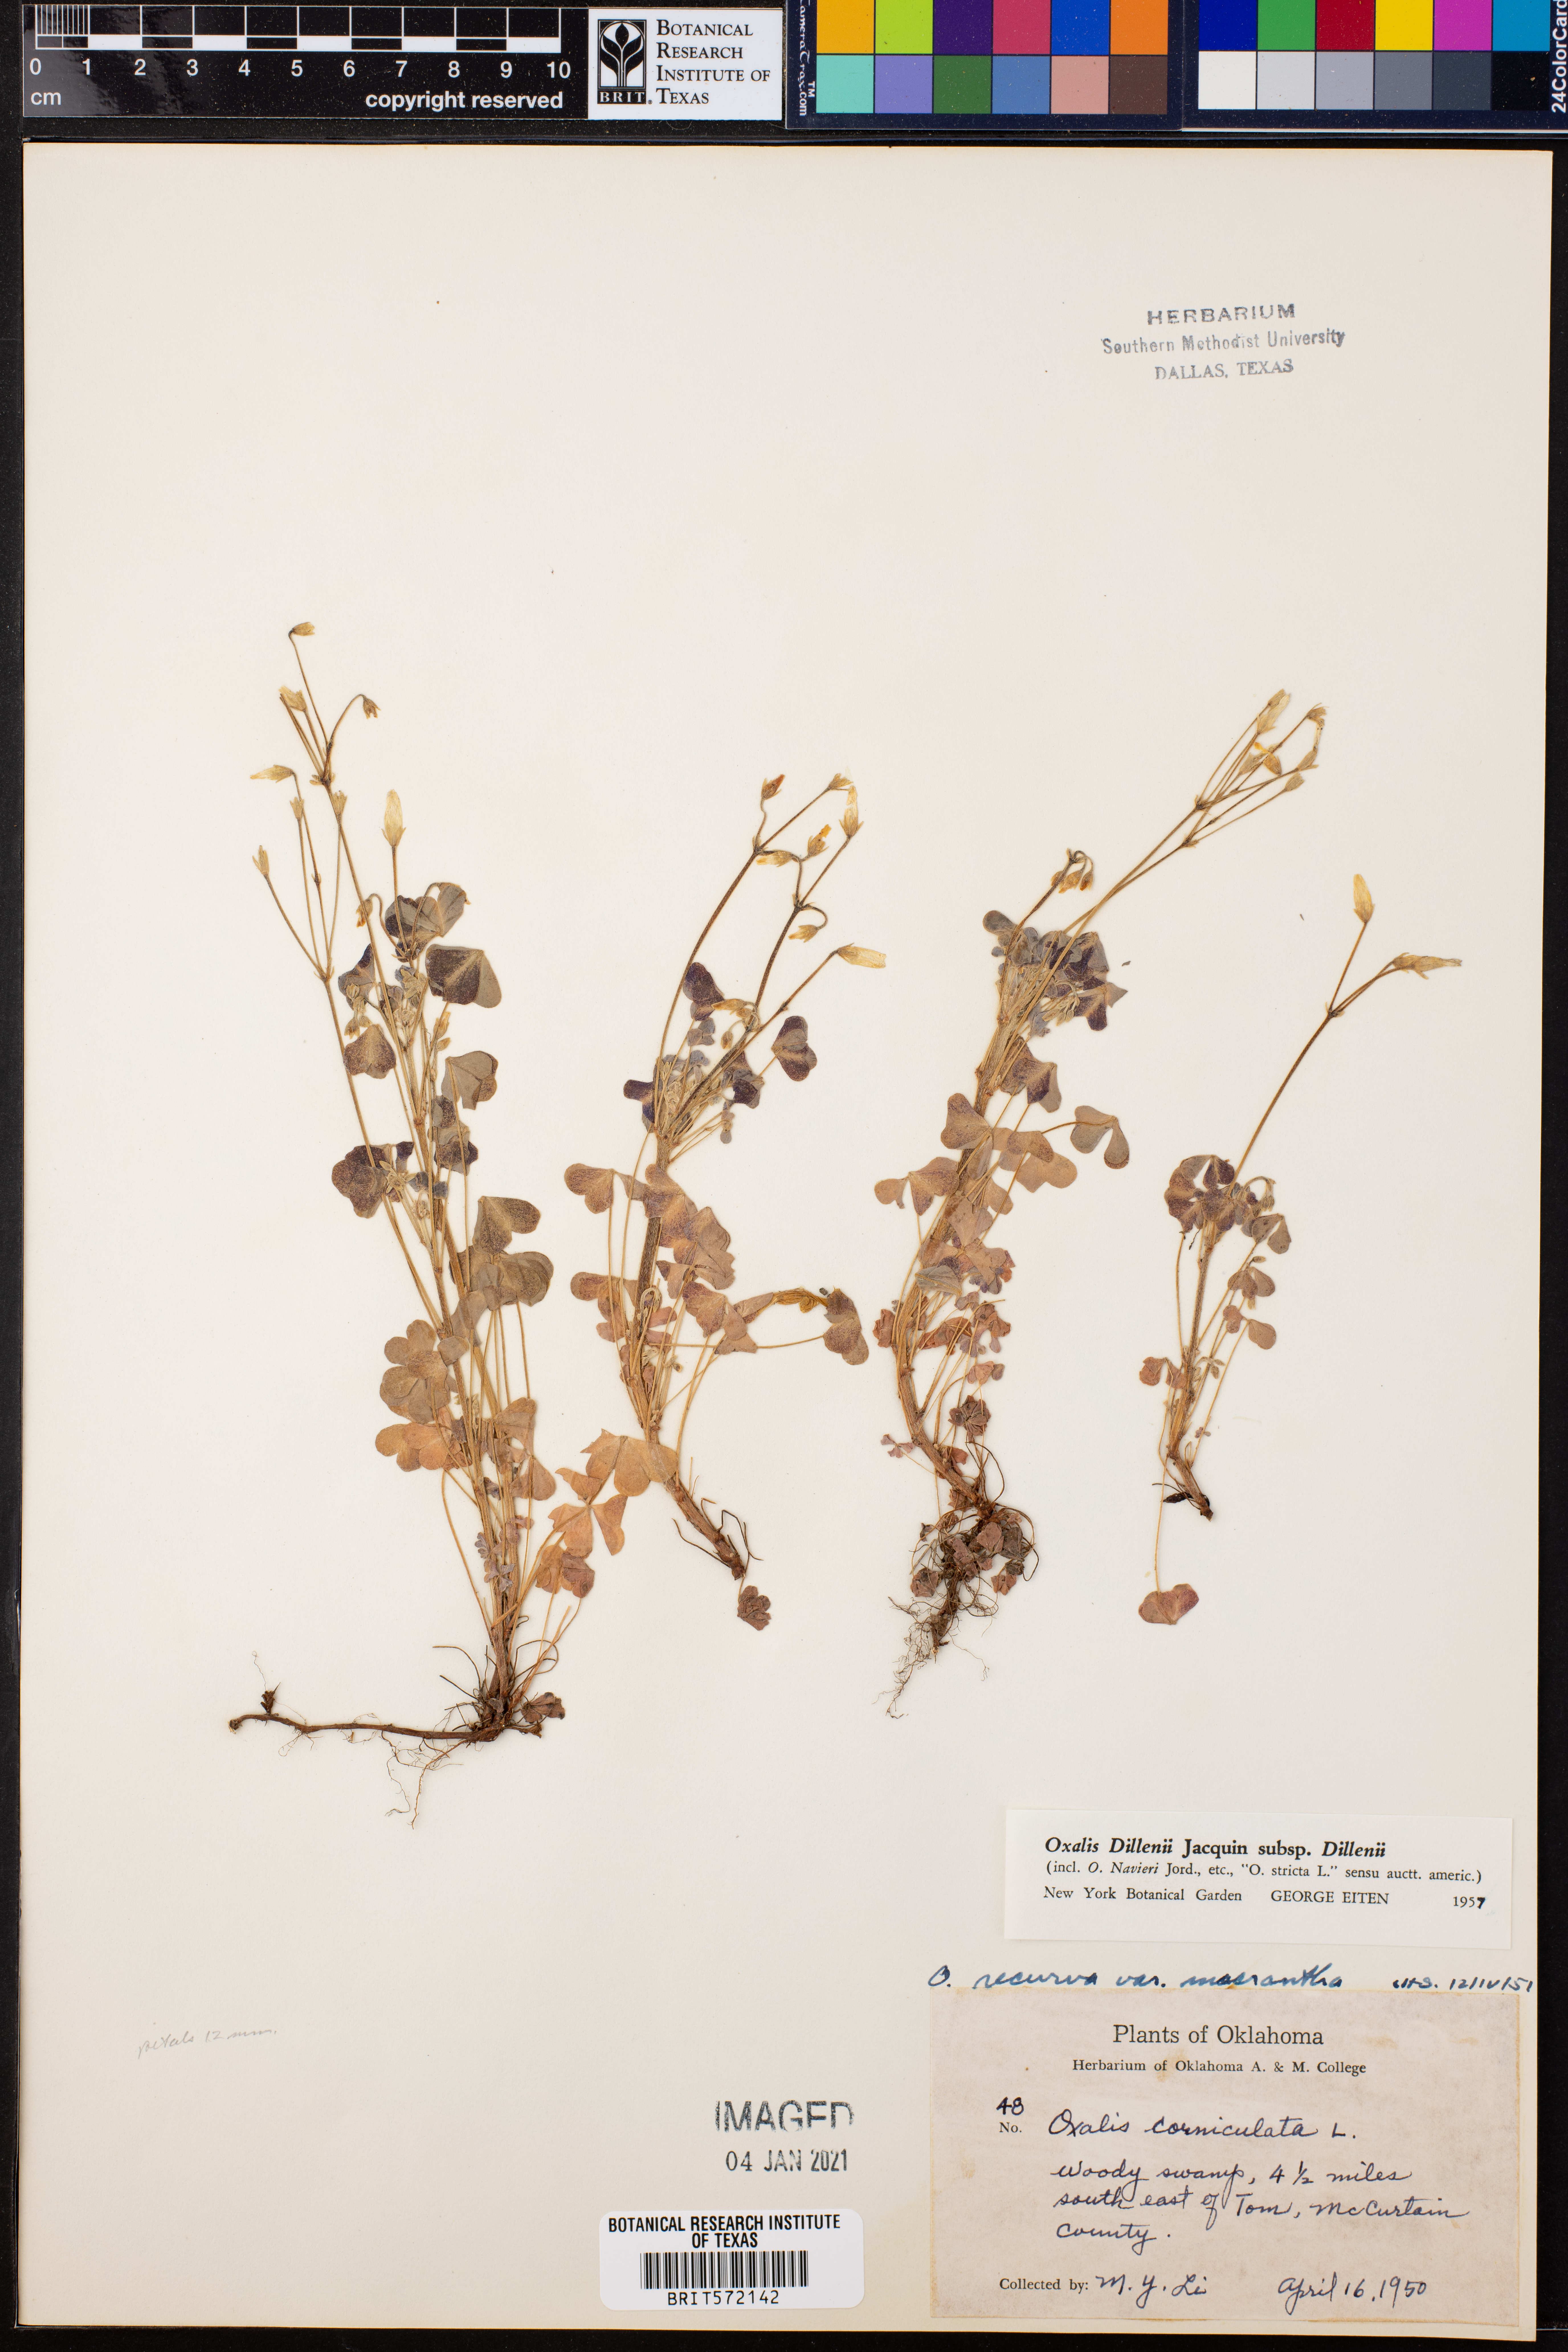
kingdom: Plantae
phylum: Tracheophyta
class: Magnoliopsida
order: Oxalidales
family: Oxalidaceae
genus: Oxalis
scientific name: Oxalis dillenii
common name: Sussex yellow-sorrel
